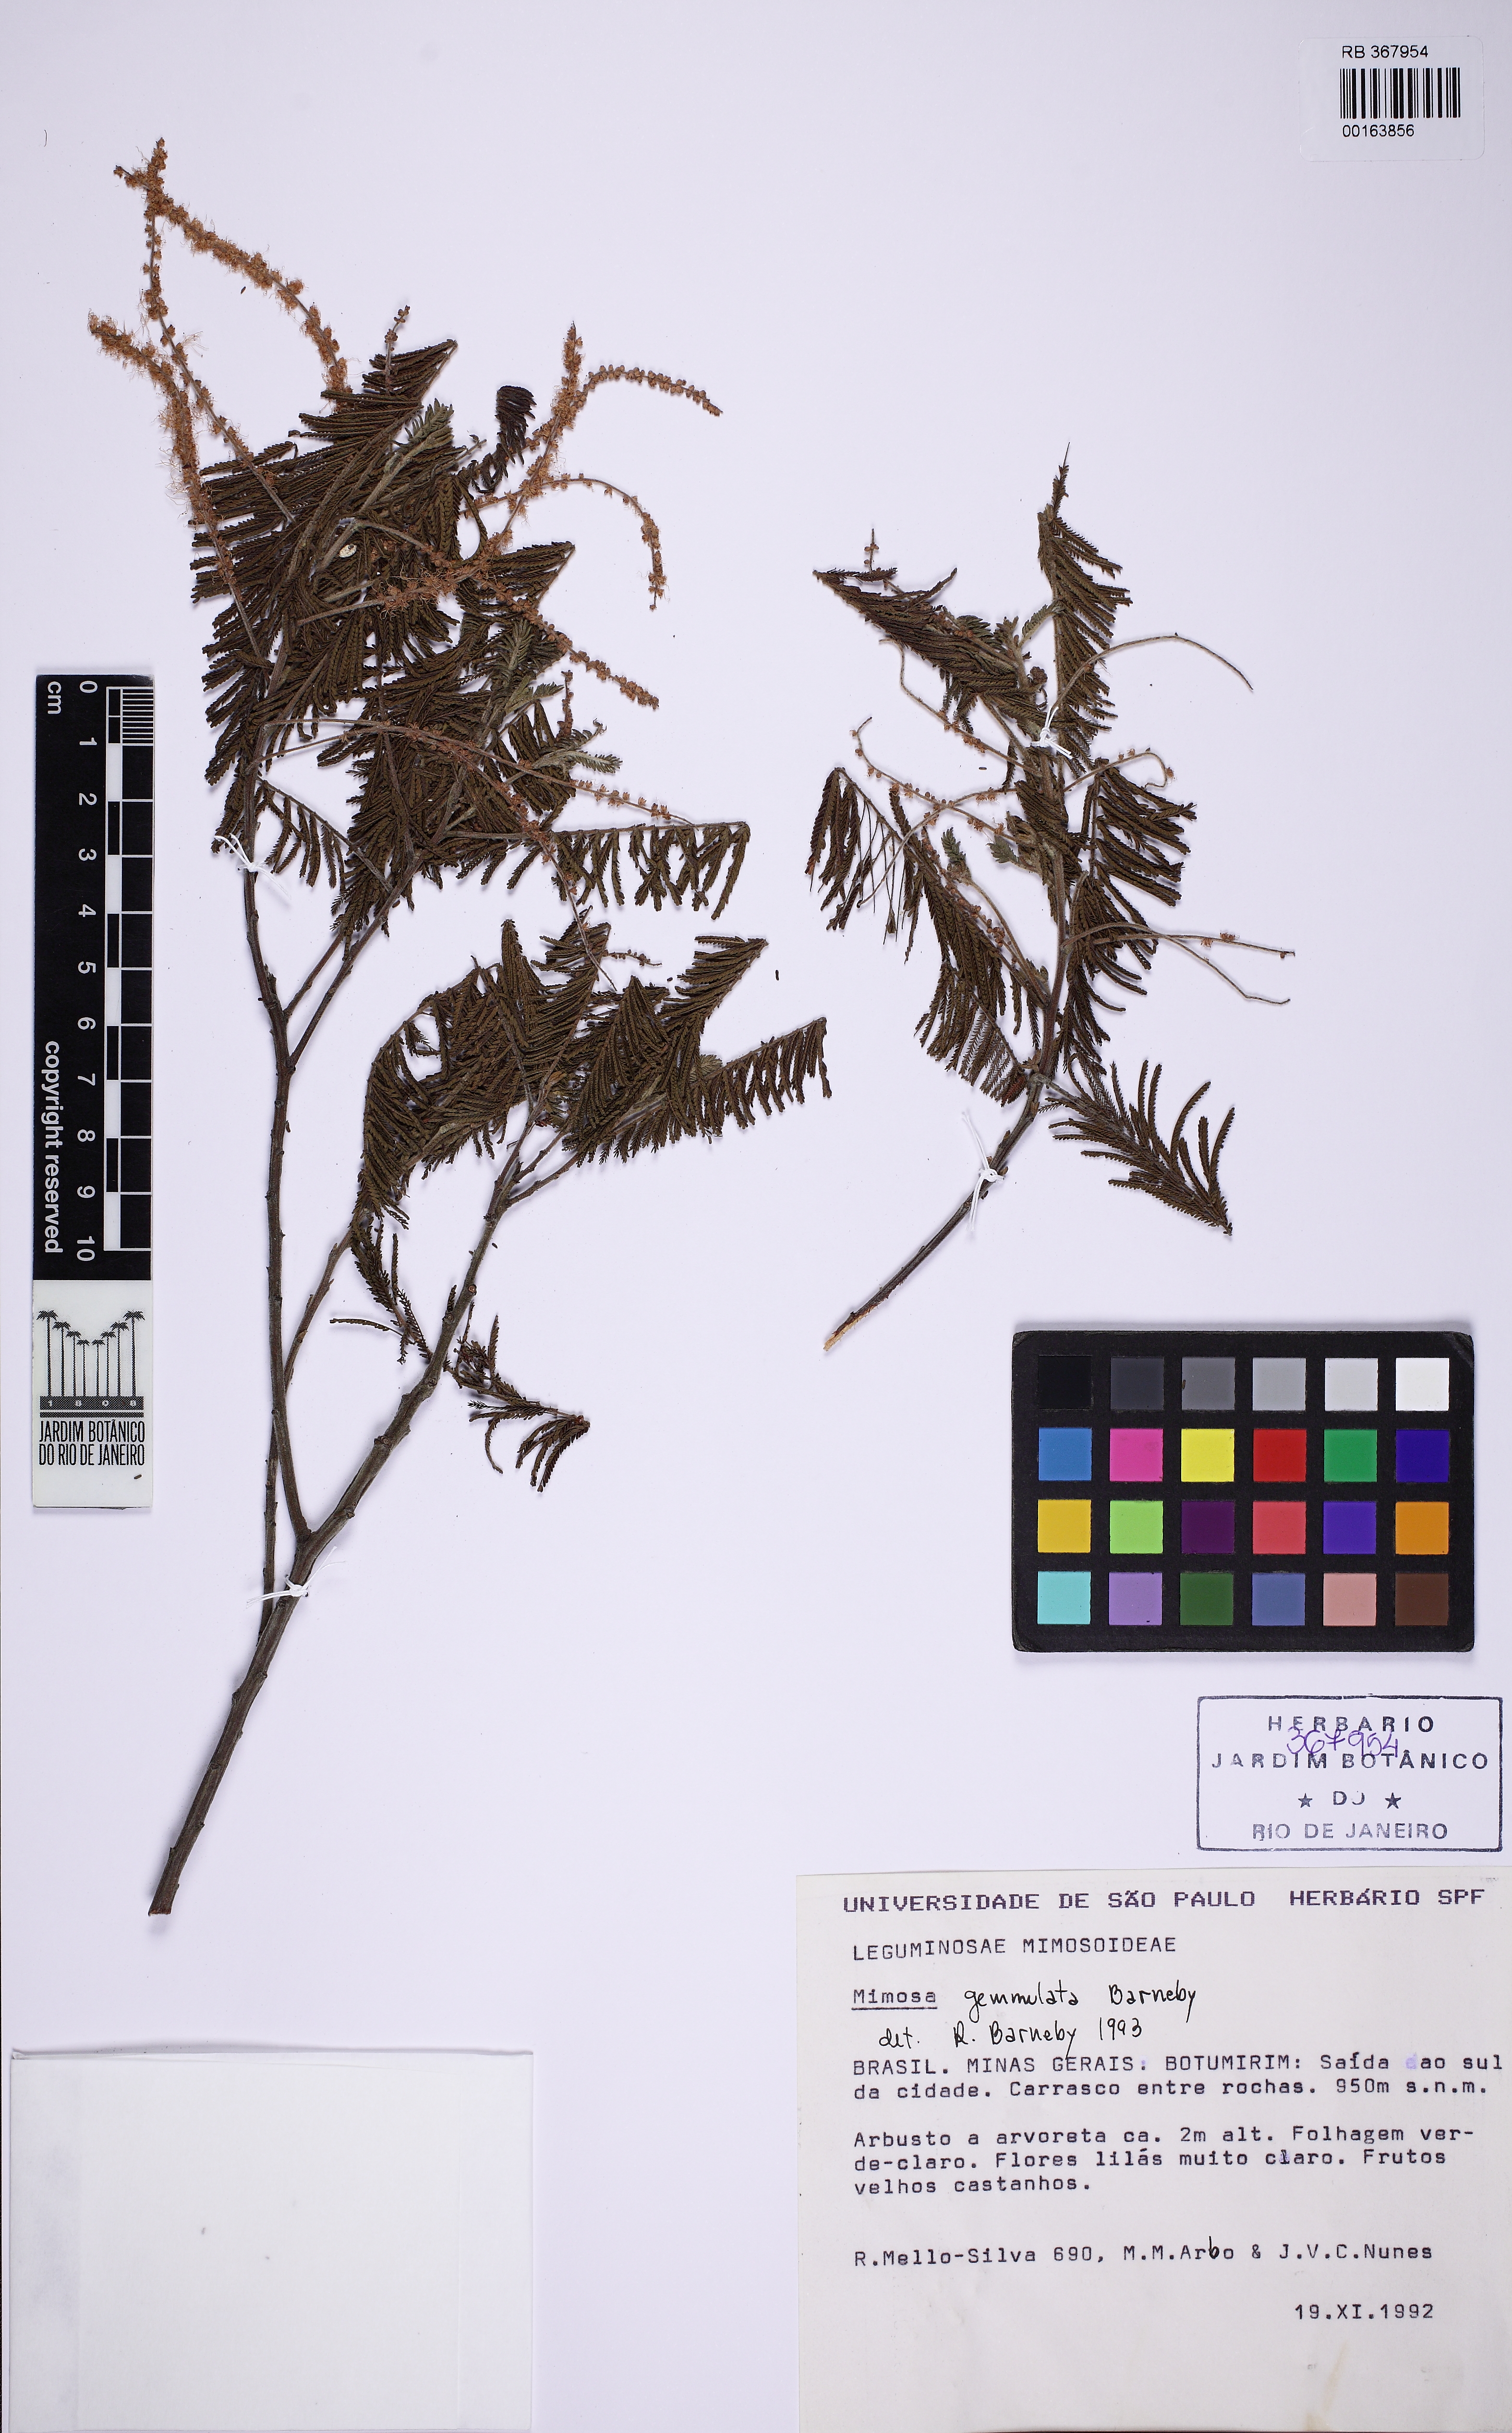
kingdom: Plantae
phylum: Tracheophyta
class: Magnoliopsida
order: Fabales
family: Fabaceae
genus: Mimosa
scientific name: Mimosa gemmulata
